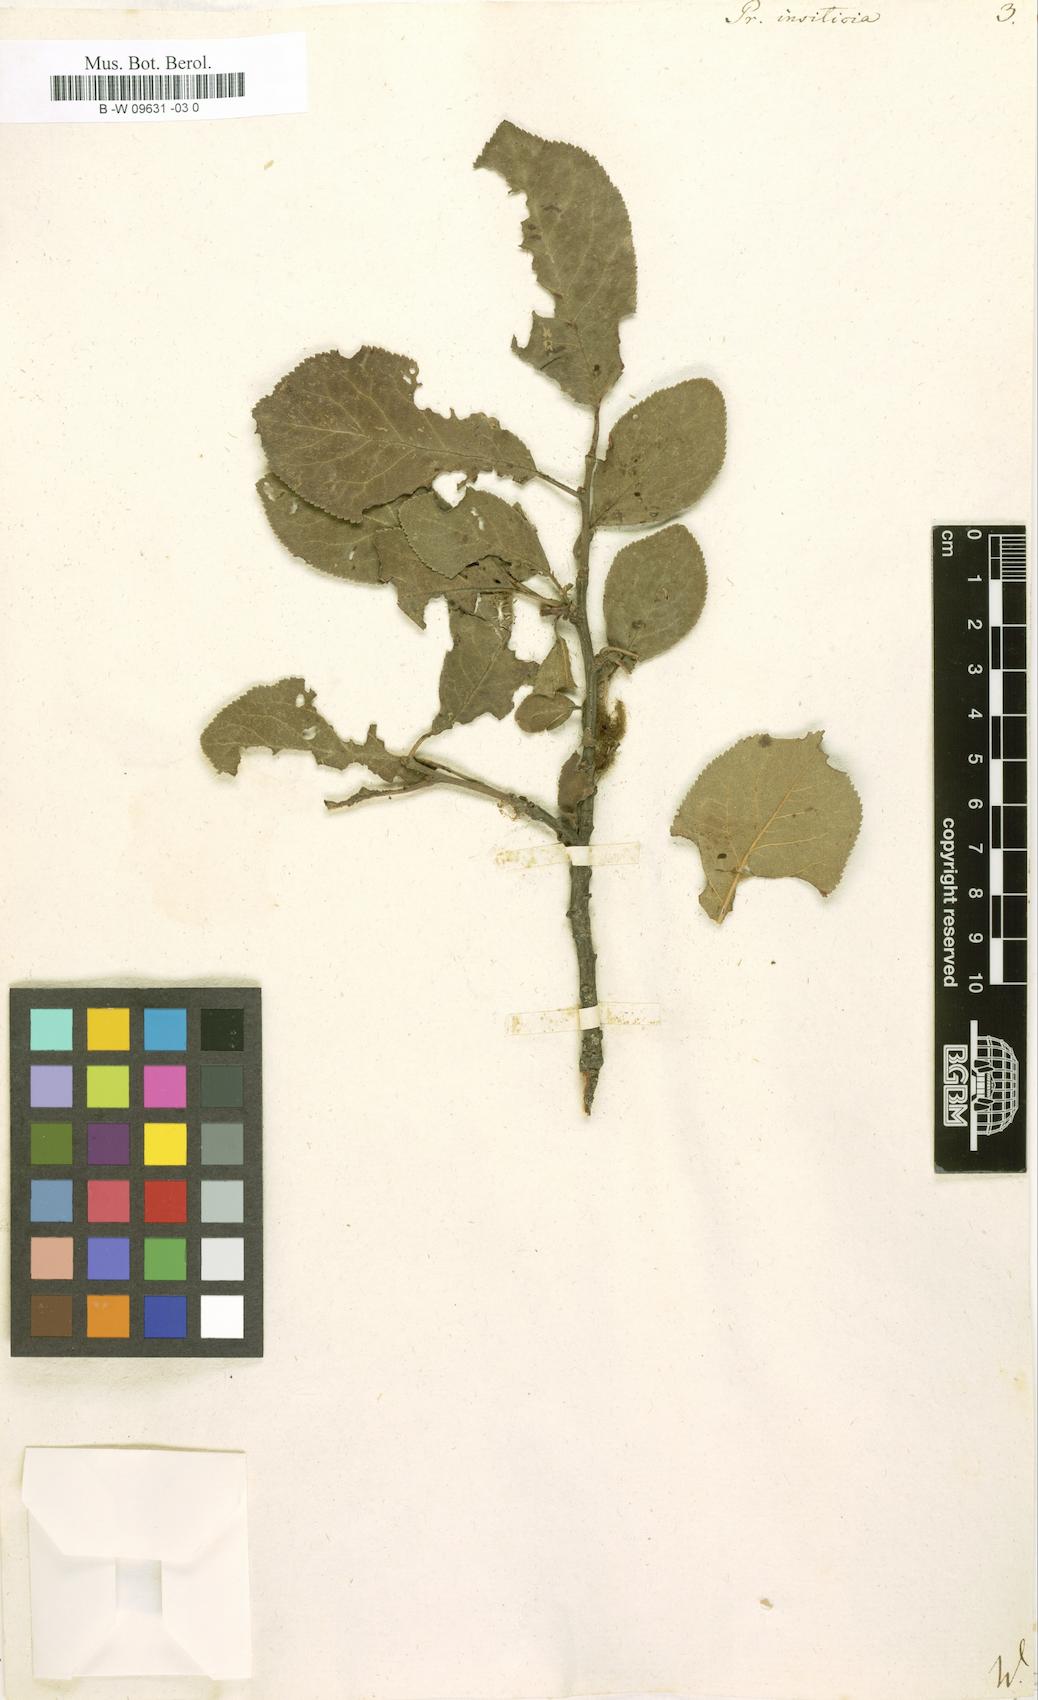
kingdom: Plantae
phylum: Tracheophyta
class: Magnoliopsida
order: Rosales
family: Rosaceae
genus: Prunus
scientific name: Prunus
